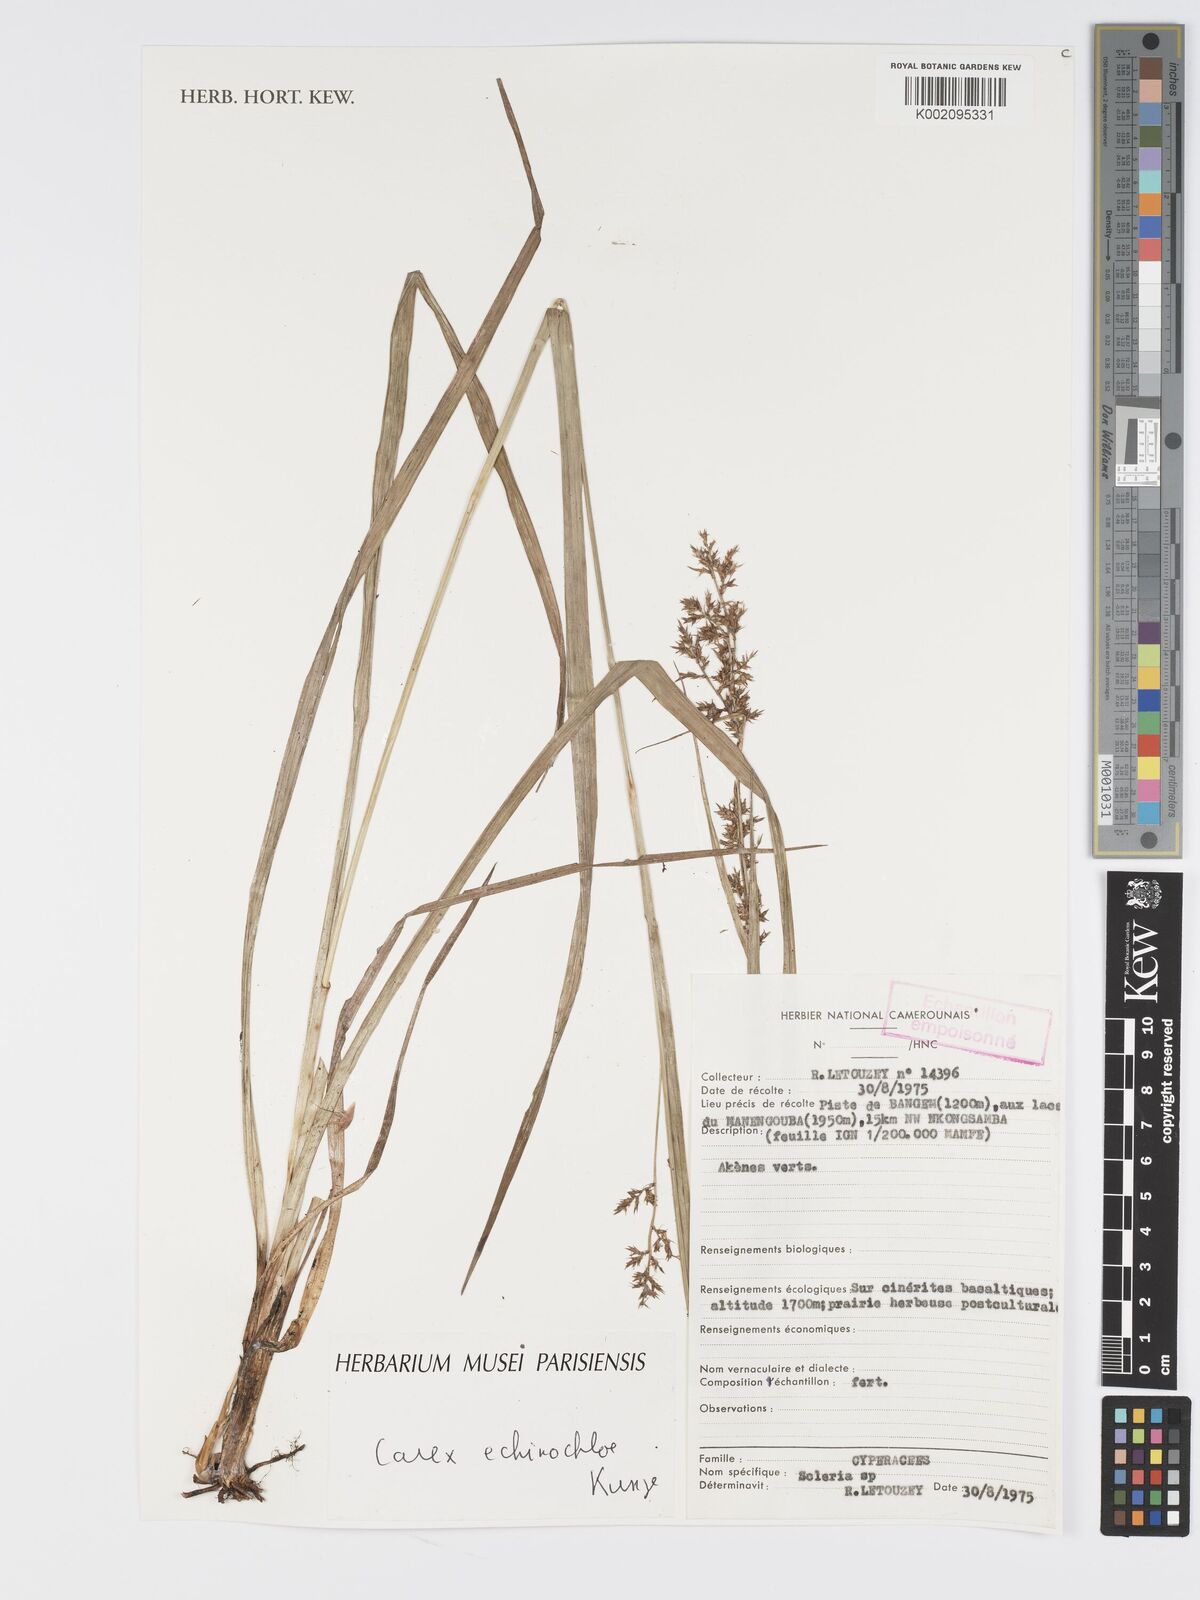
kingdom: Plantae
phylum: Tracheophyta
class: Liliopsida
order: Poales
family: Cyperaceae
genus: Carex
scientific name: Carex echinochloe
